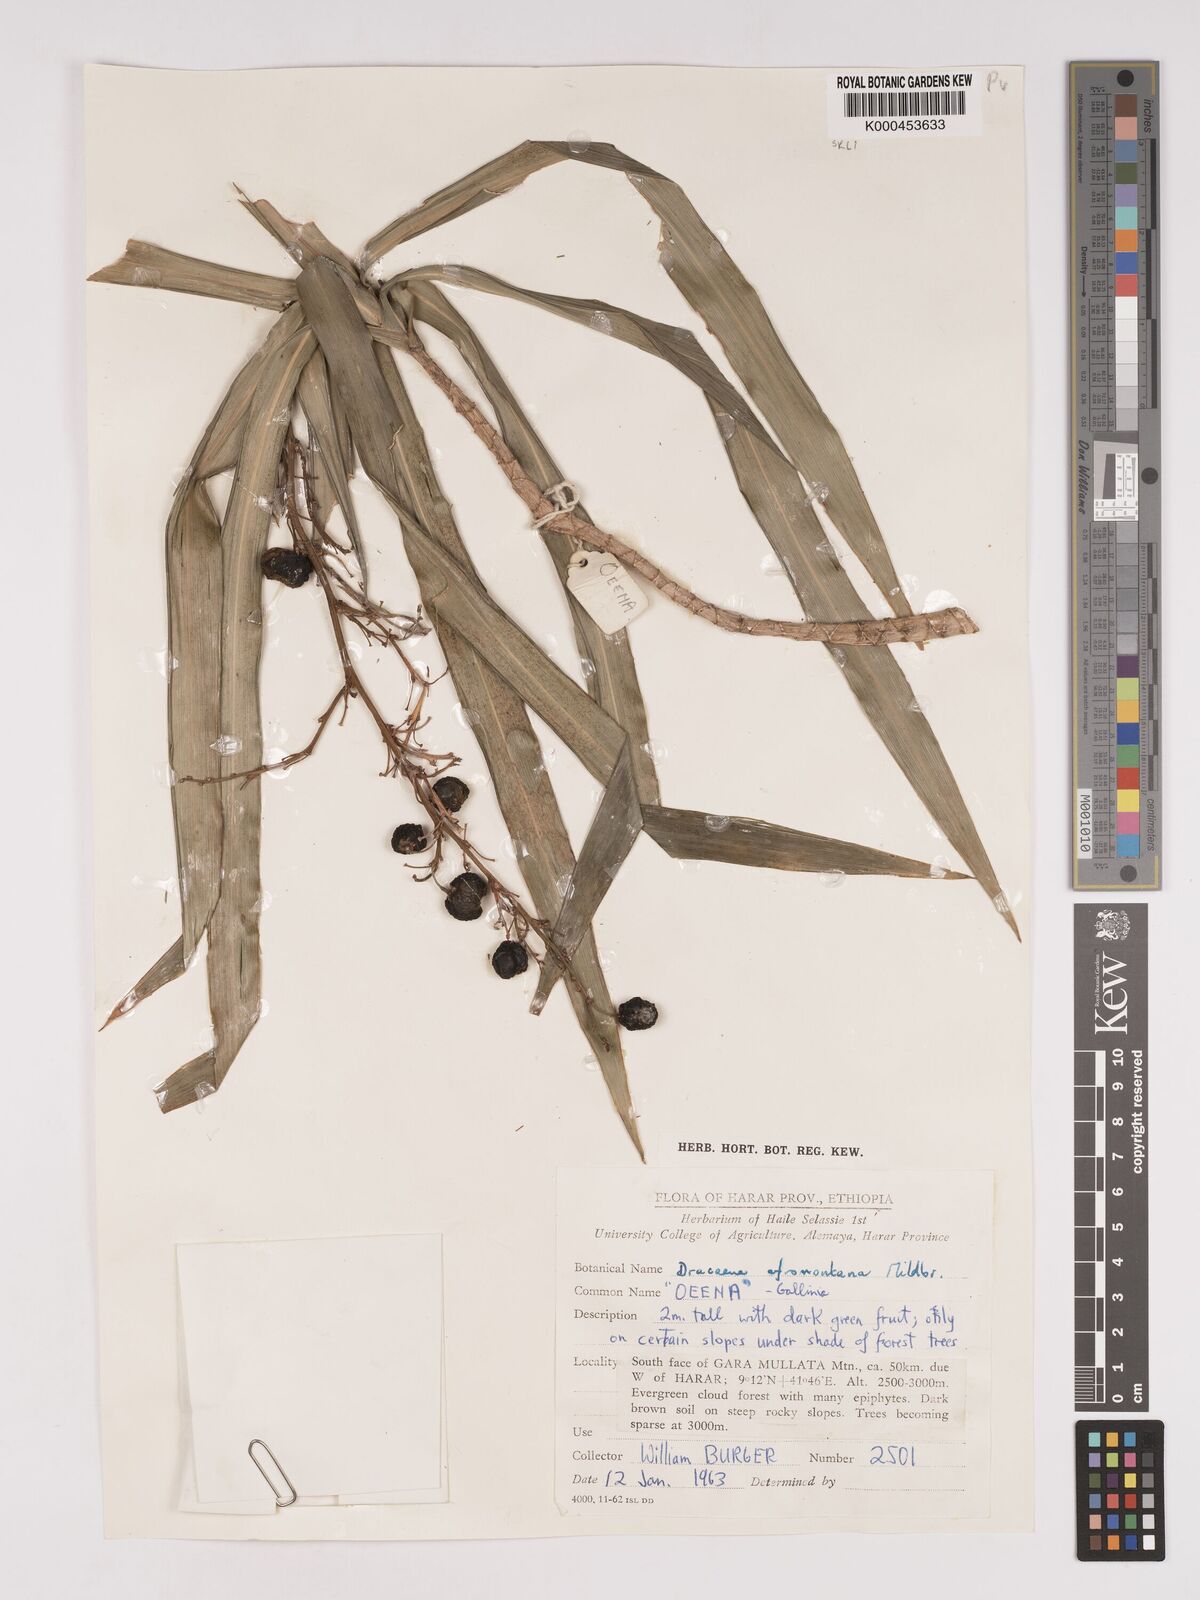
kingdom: Plantae
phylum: Tracheophyta
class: Liliopsida
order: Asparagales
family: Asparagaceae
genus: Dracaena
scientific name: Dracaena afromontana
